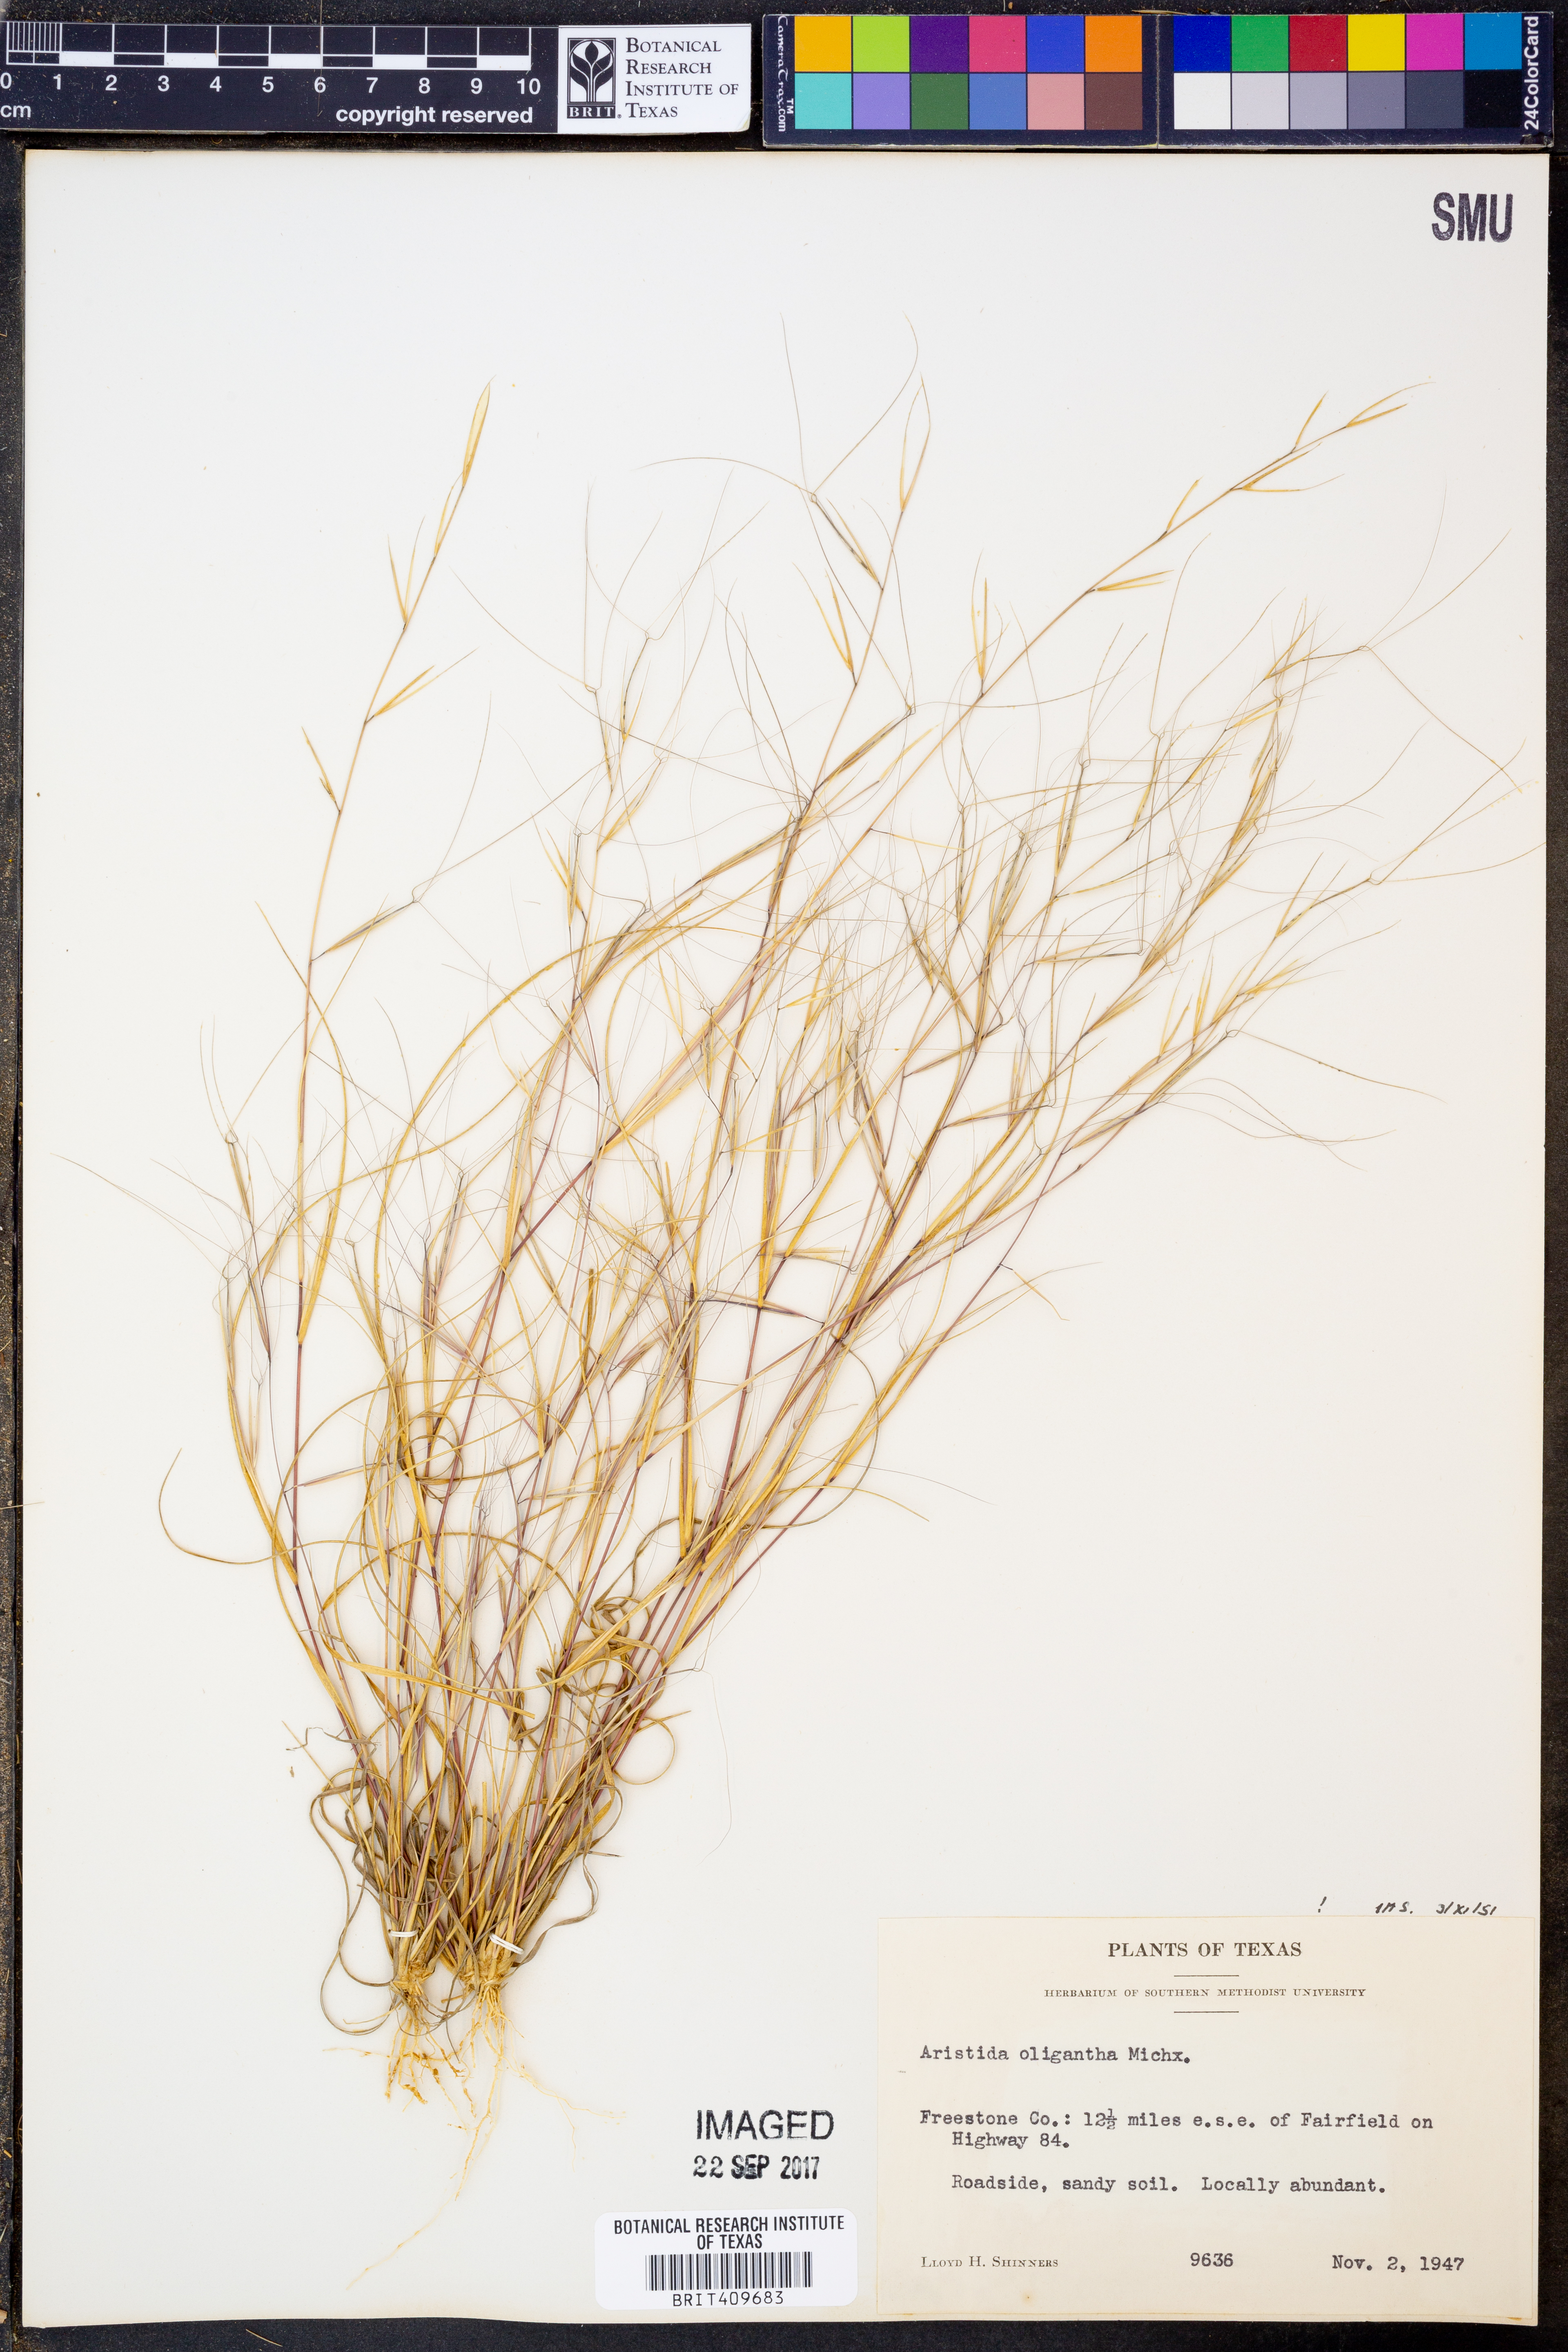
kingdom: Plantae
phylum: Tracheophyta
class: Liliopsida
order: Poales
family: Poaceae
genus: Aristida
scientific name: Aristida oligantha
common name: Few-flowered aristida
